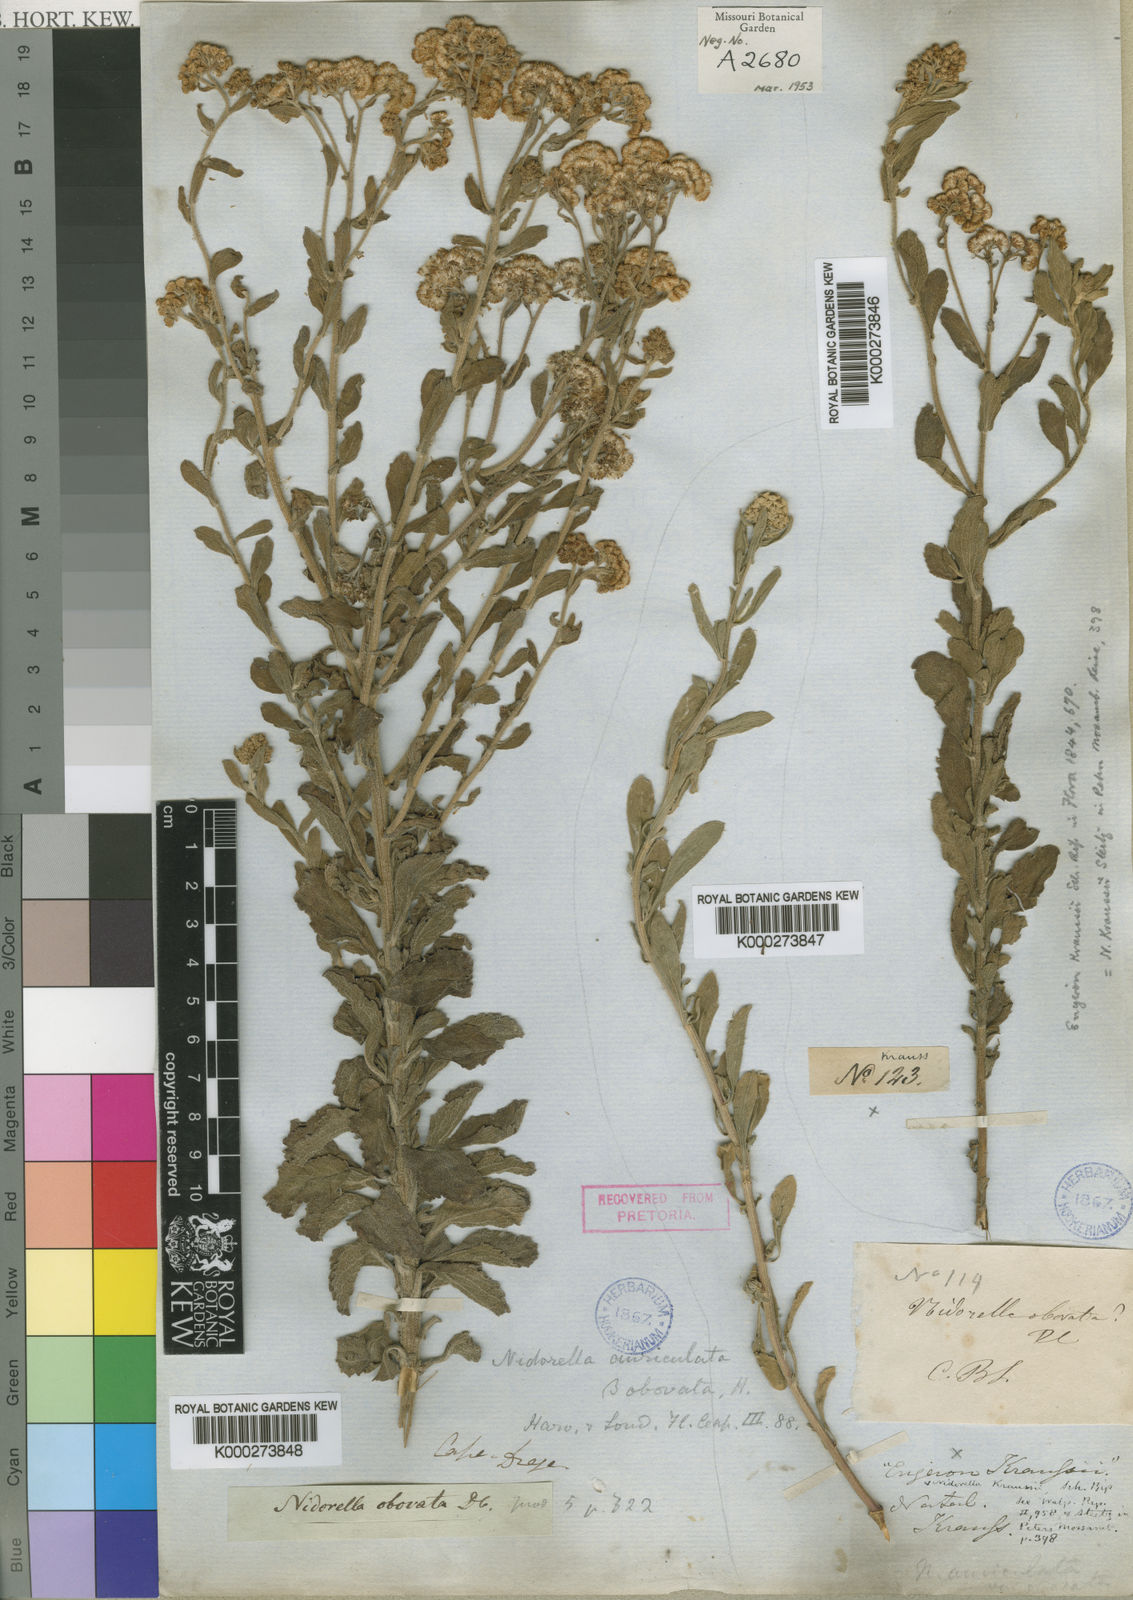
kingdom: Plantae
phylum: Tracheophyta
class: Magnoliopsida
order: Asterales
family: Asteraceae
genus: Nidorella
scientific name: Nidorella auriculata
